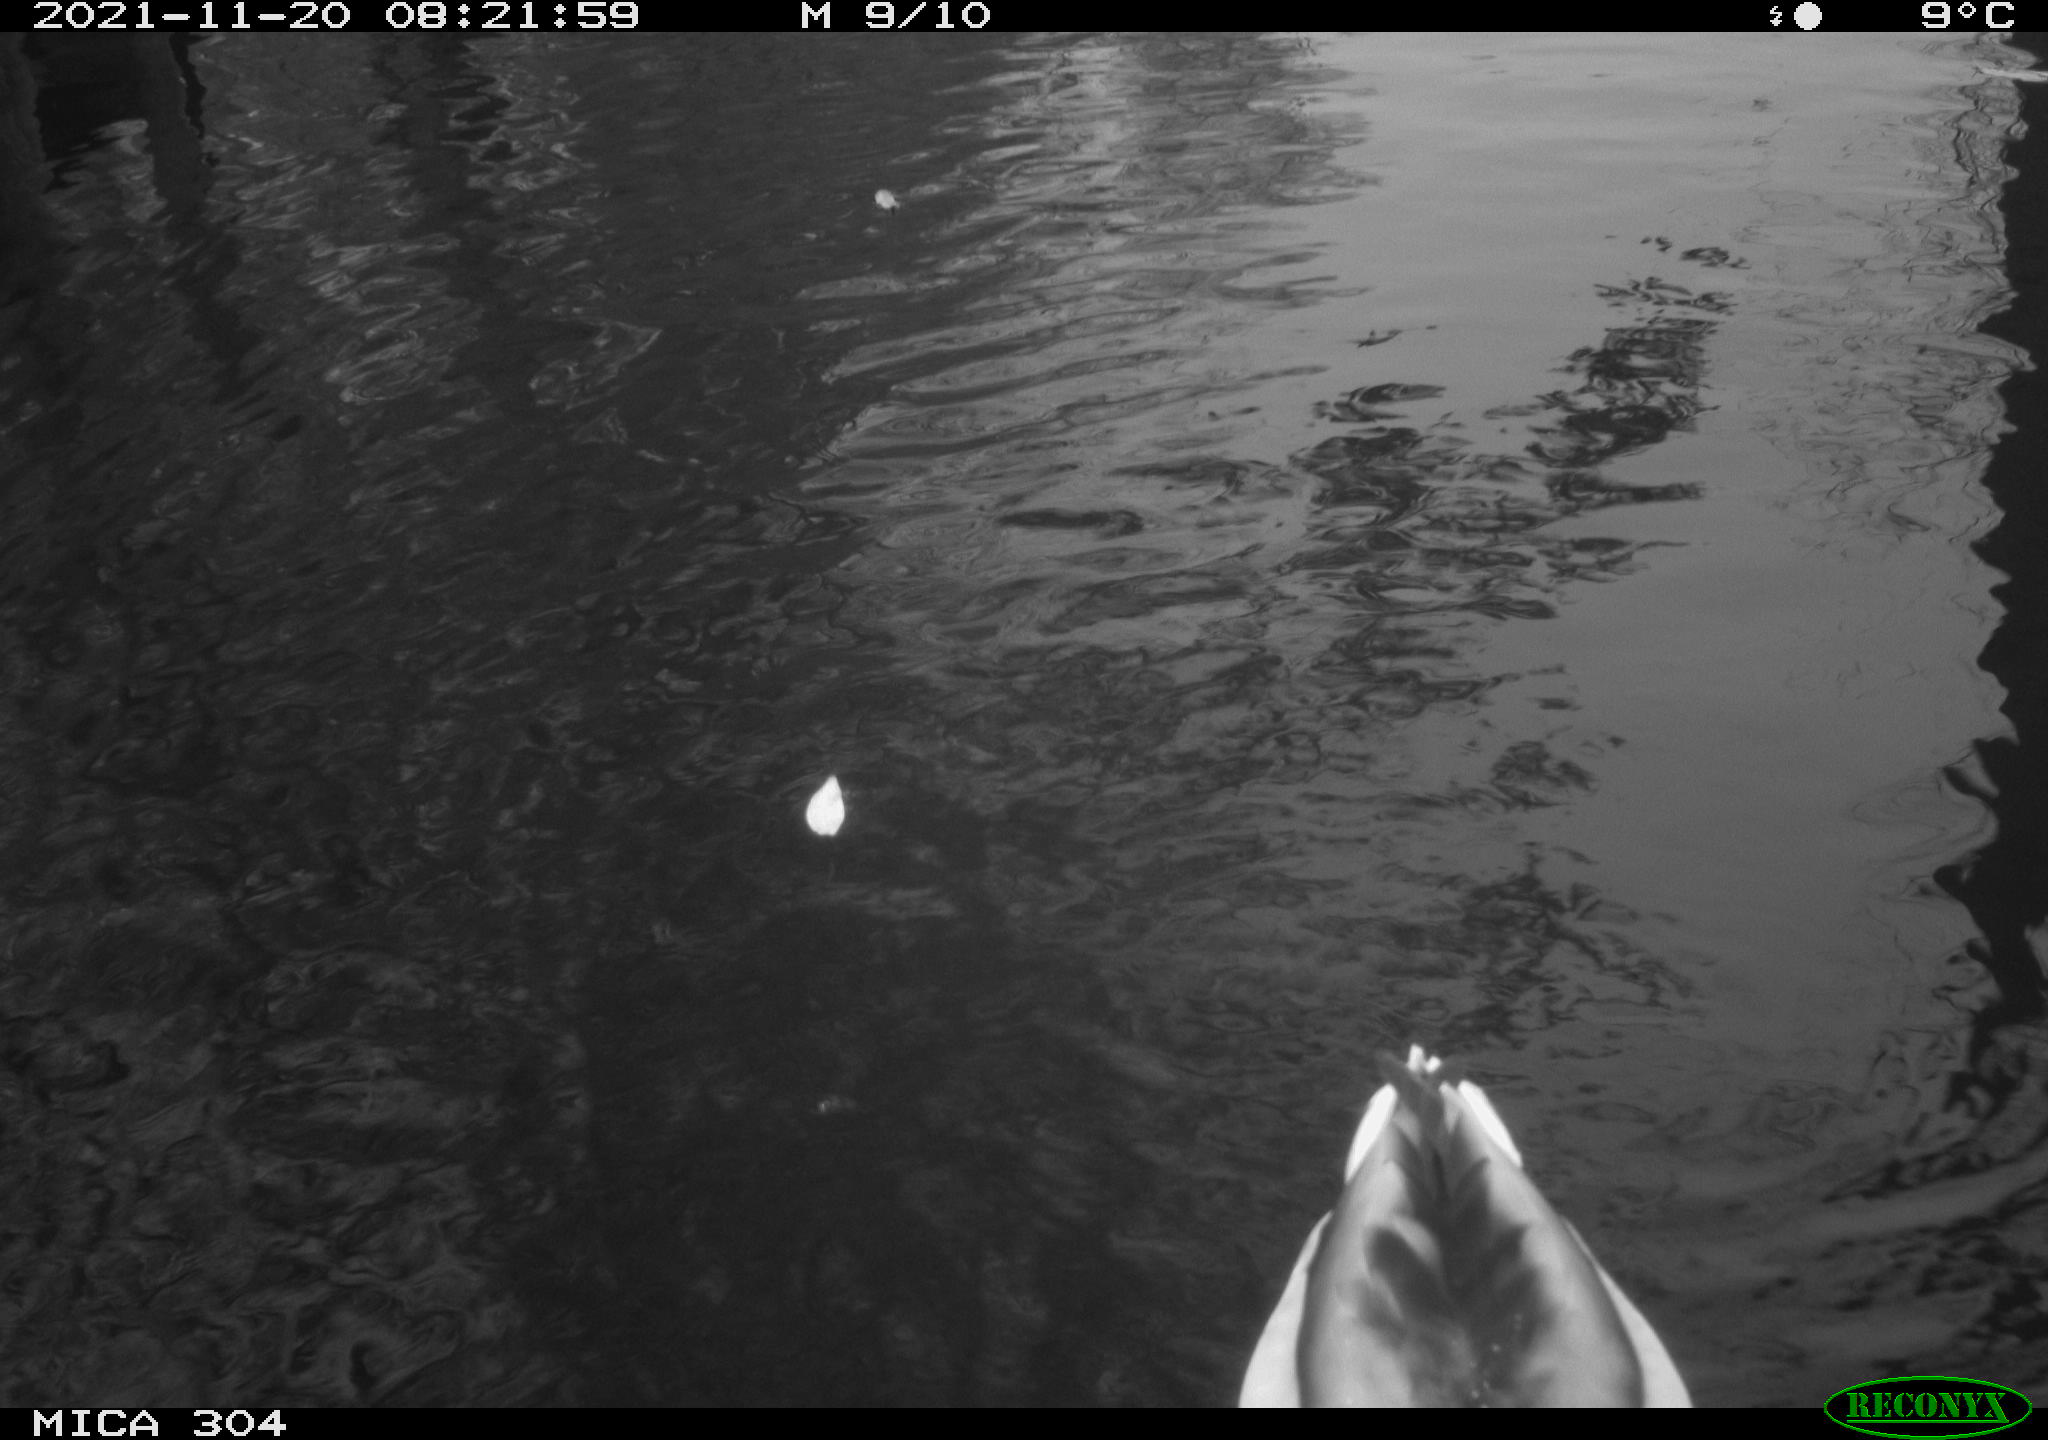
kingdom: Animalia
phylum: Chordata
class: Aves
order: Anseriformes
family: Anatidae
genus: Anas
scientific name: Anas platyrhynchos
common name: Mallard
